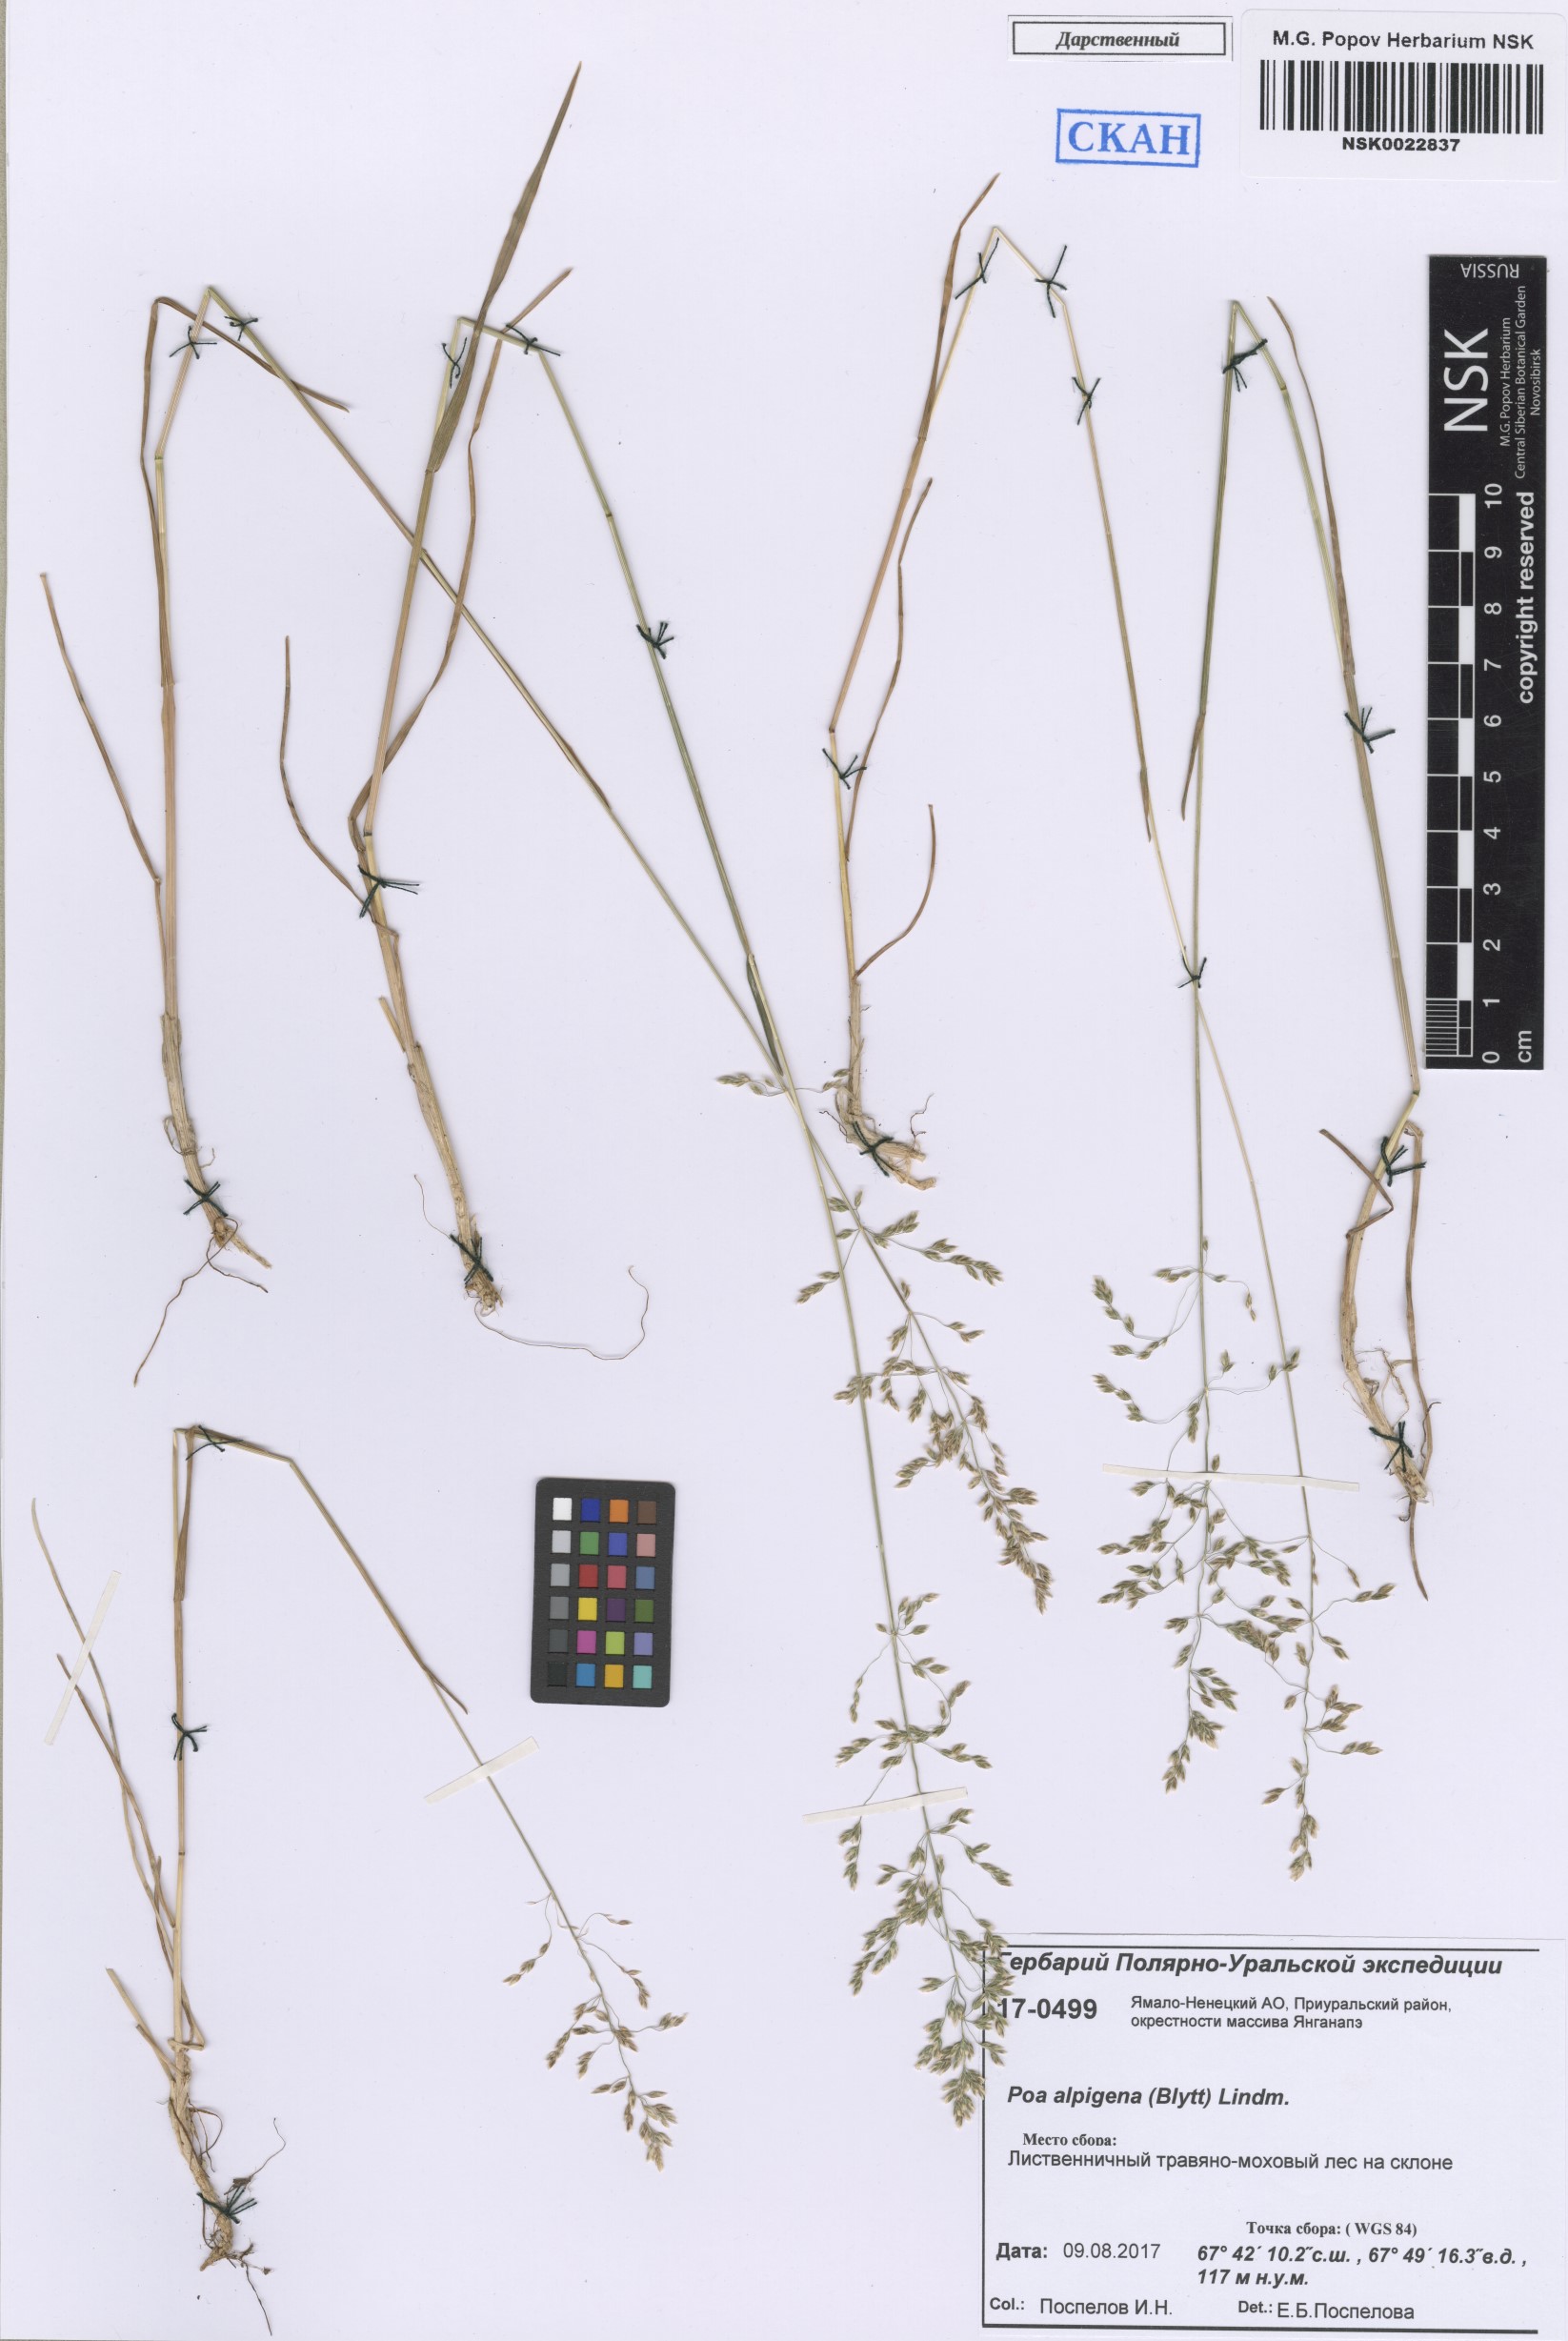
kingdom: Plantae
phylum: Tracheophyta
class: Liliopsida
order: Poales
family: Poaceae
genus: Poa
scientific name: Poa alpigena
